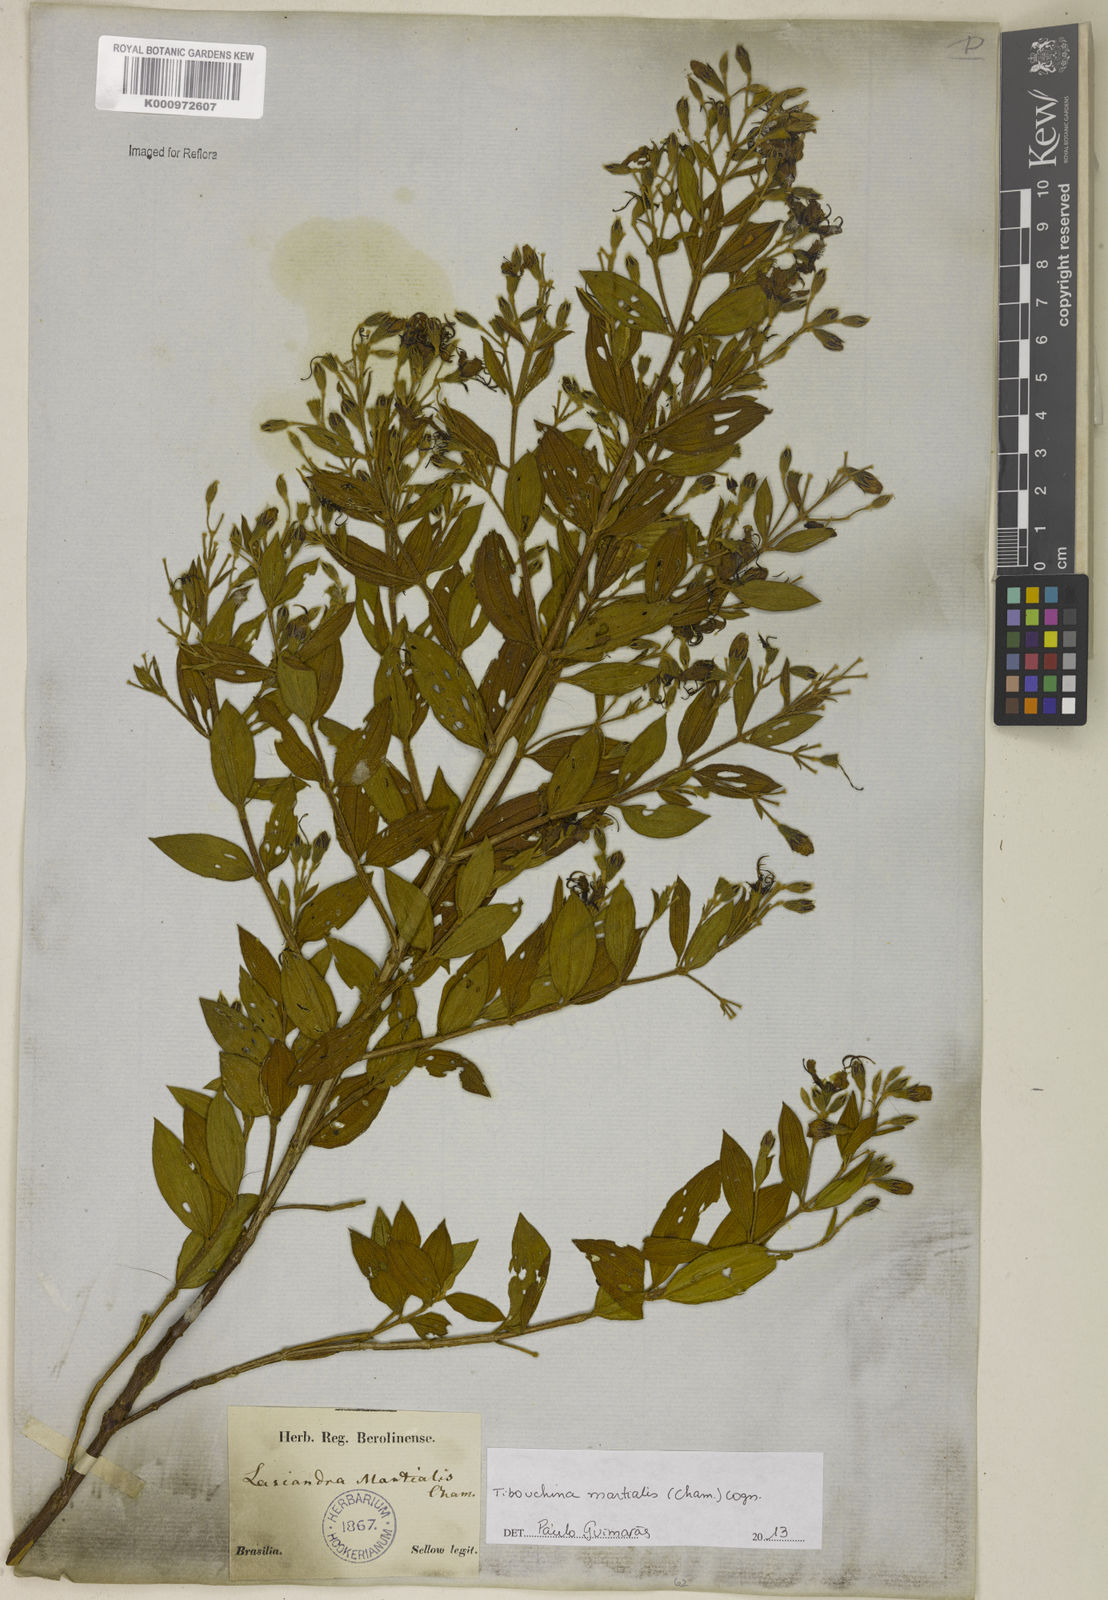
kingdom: Plantae
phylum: Tracheophyta
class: Magnoliopsida
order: Myrtales
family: Melastomataceae
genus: Pleroma
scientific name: Pleroma martiale
